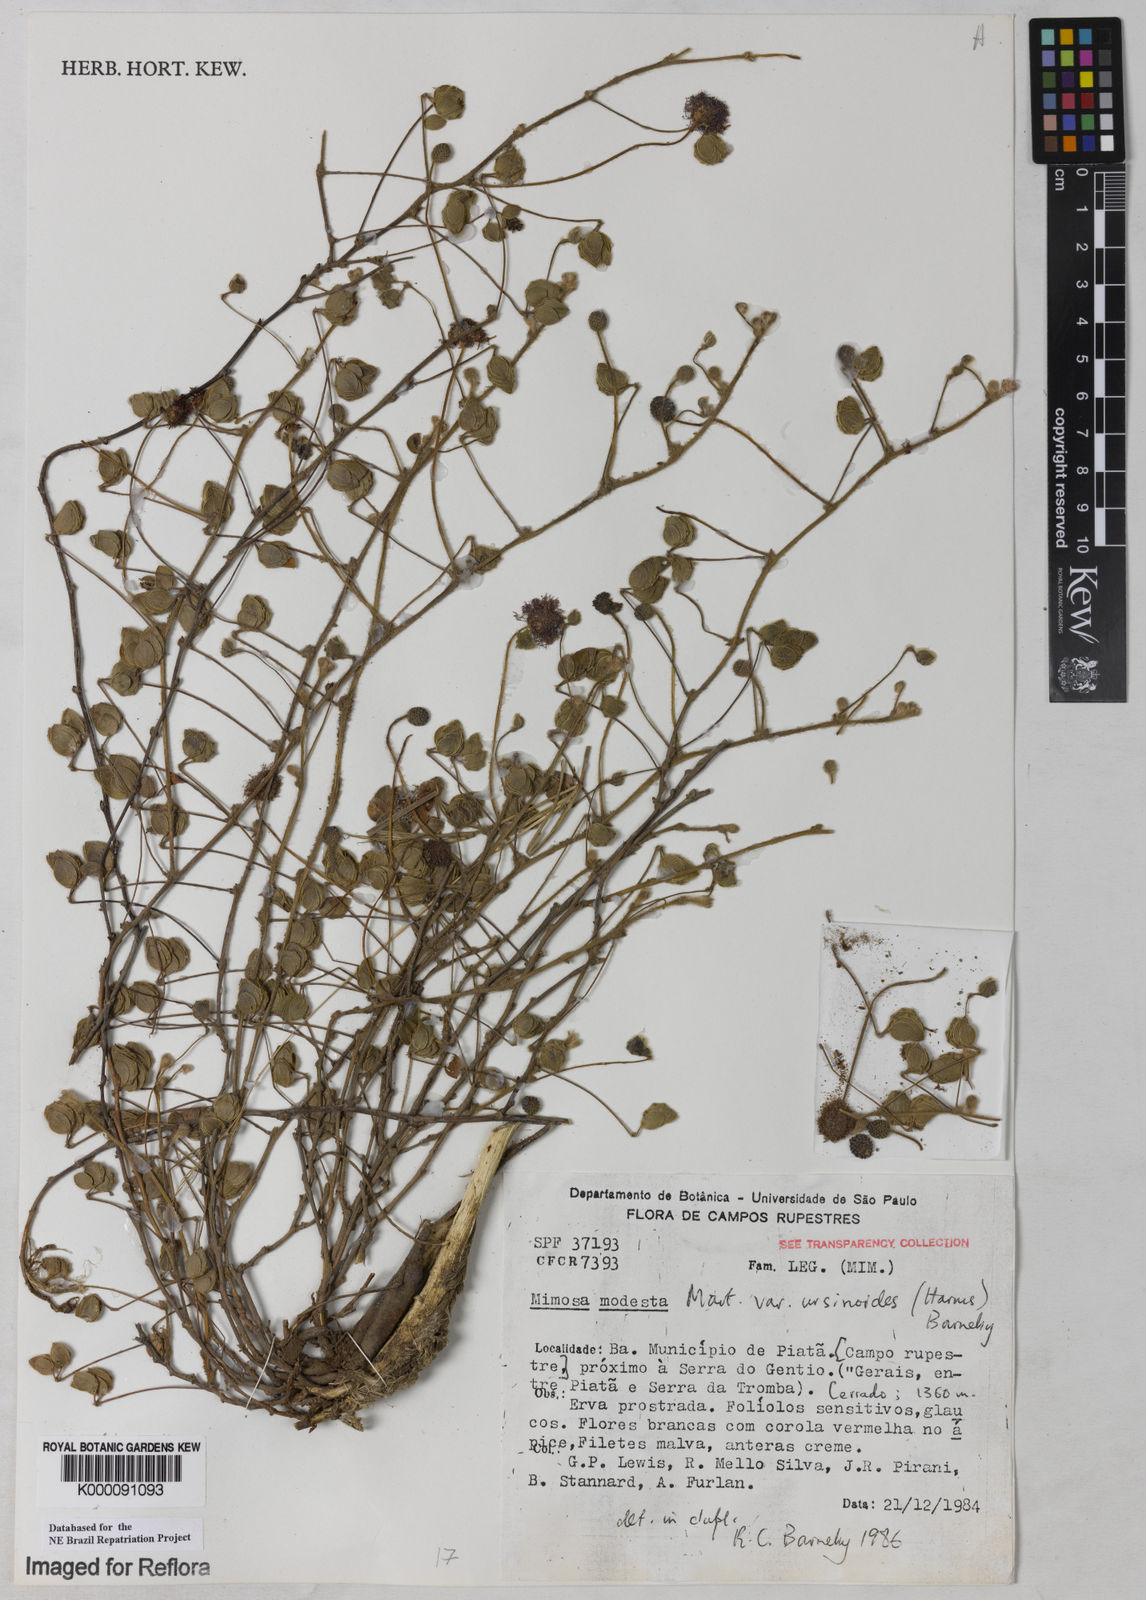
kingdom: Plantae
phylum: Tracheophyta
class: Magnoliopsida
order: Fabales
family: Fabaceae
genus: Mimosa
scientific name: Mimosa modesta
